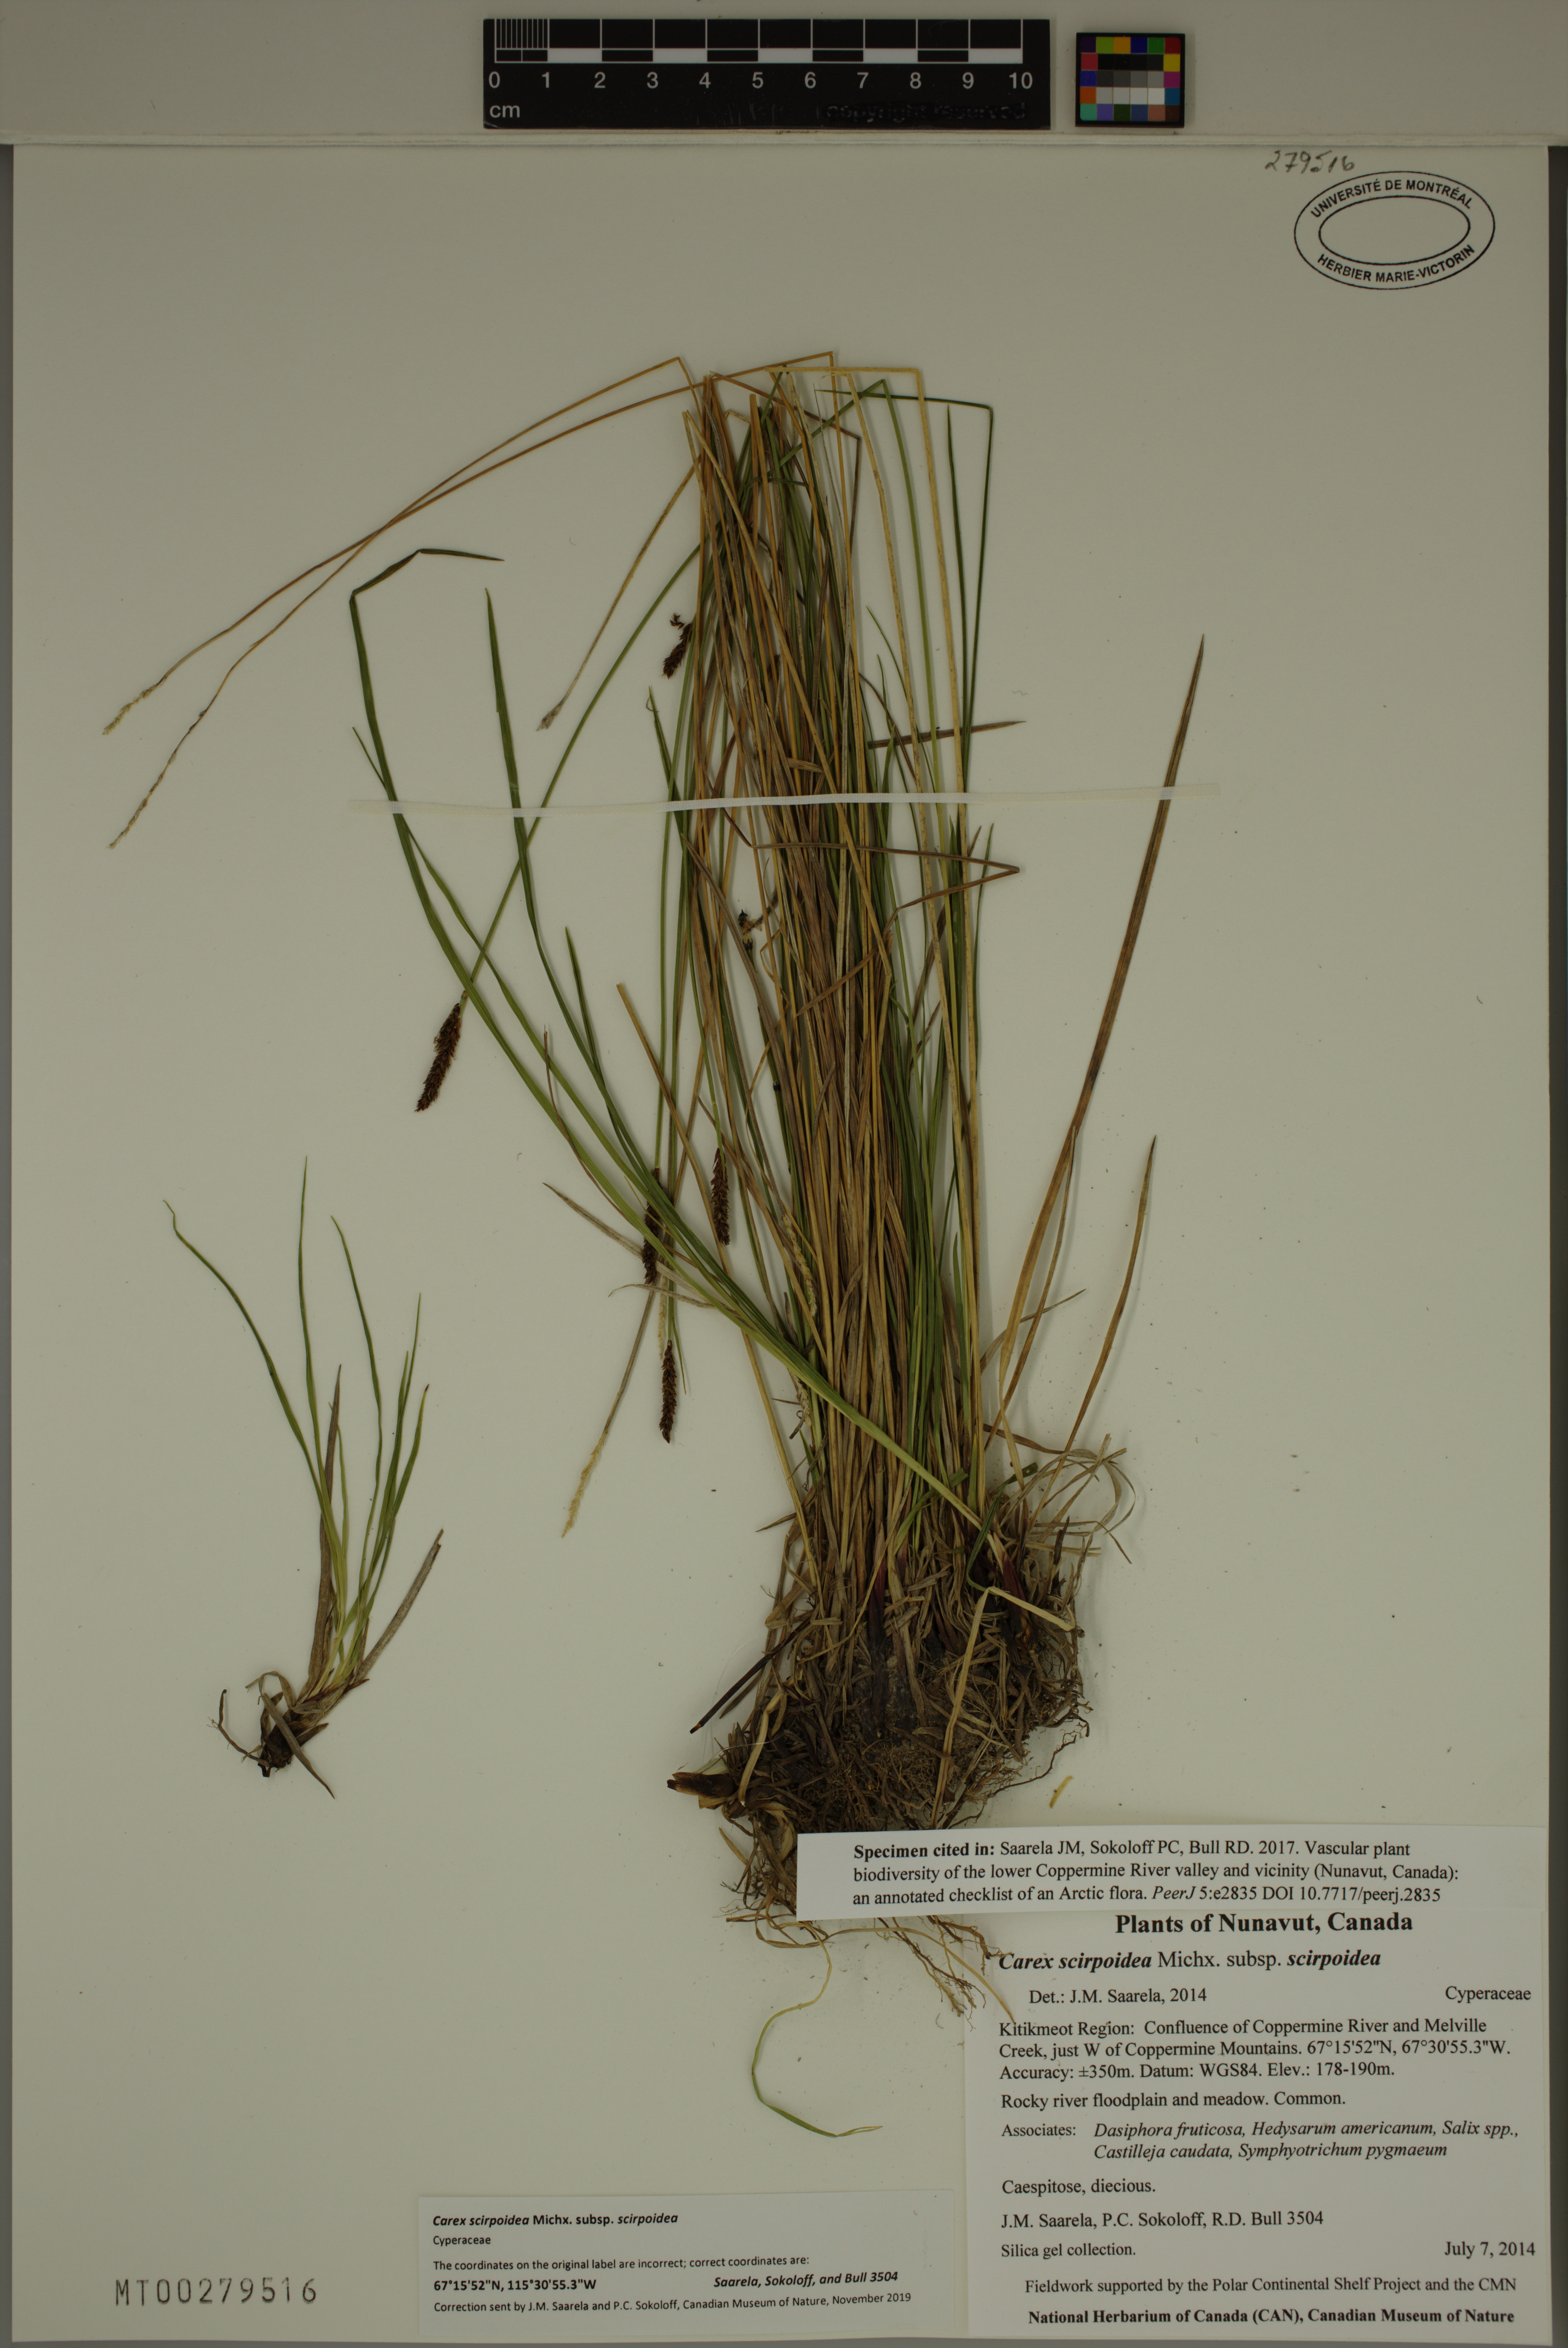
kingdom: Plantae
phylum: Tracheophyta
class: Liliopsida
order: Poales
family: Cyperaceae
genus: Carex
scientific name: Carex scirpoidea
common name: Canada single-spike sedge
